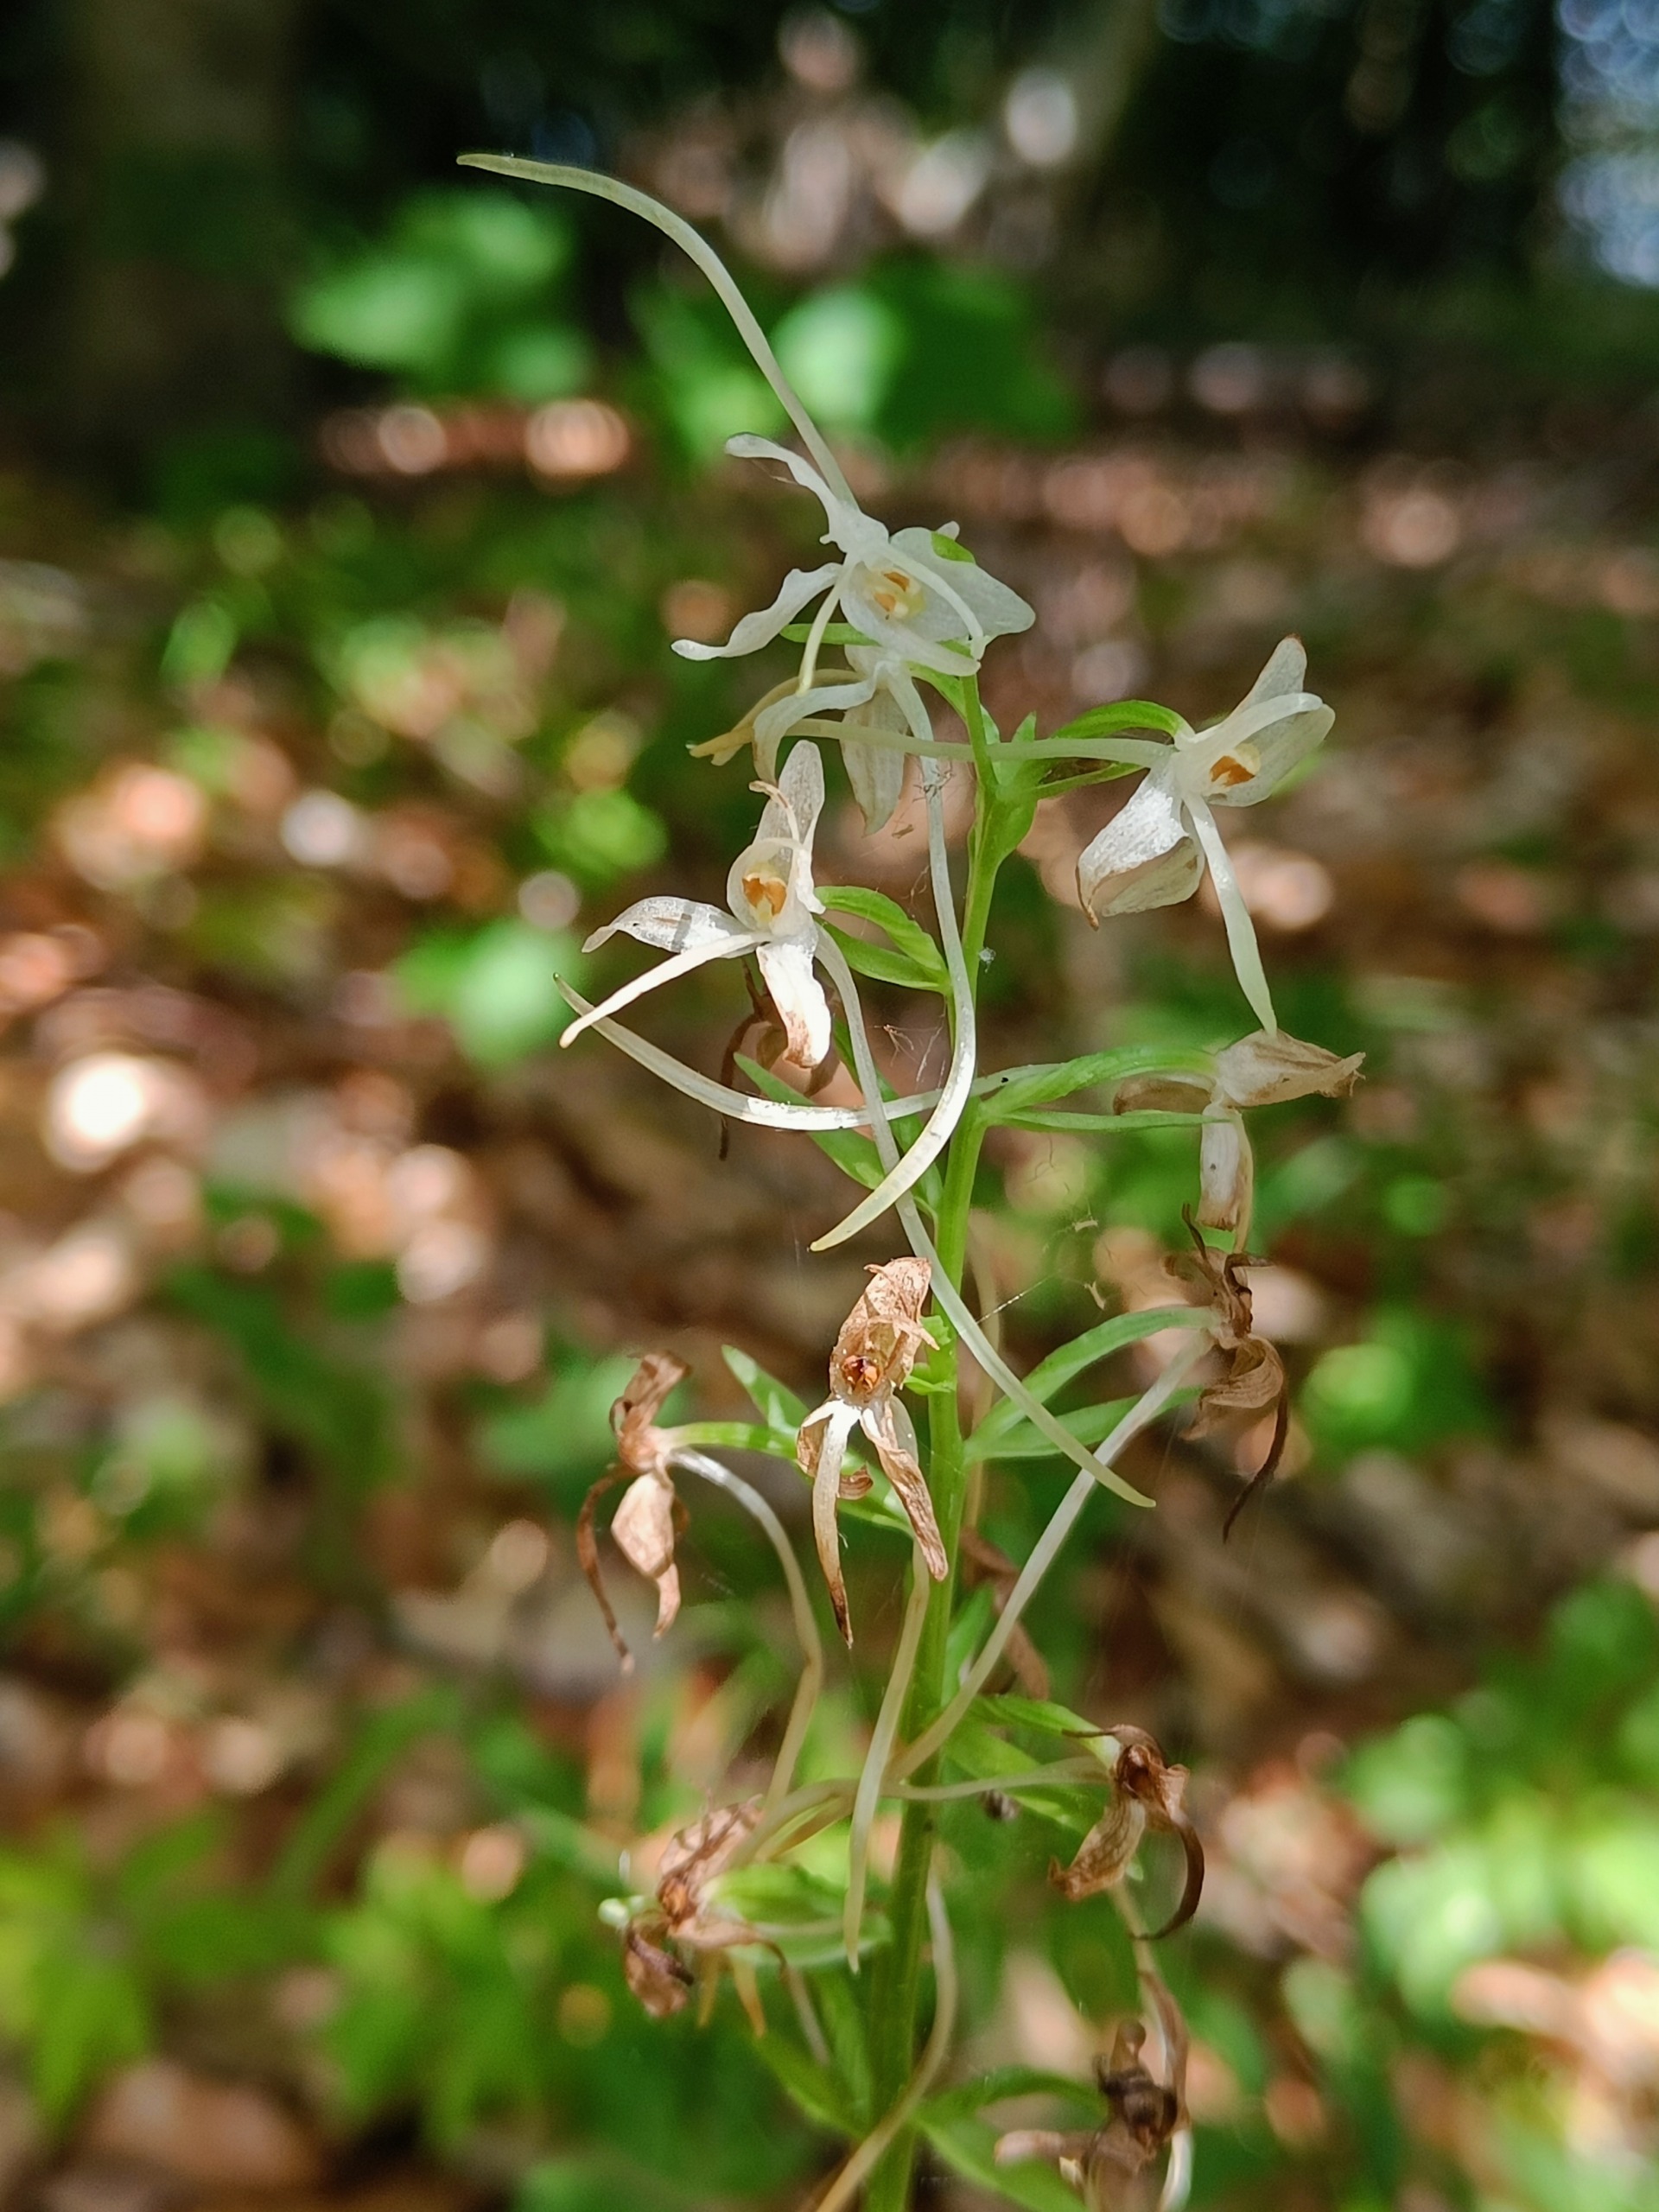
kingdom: Plantae
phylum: Tracheophyta
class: Liliopsida
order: Asparagales
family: Orchidaceae
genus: Platanthera
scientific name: Platanthera bifolia
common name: Langsporet gøgelilje
